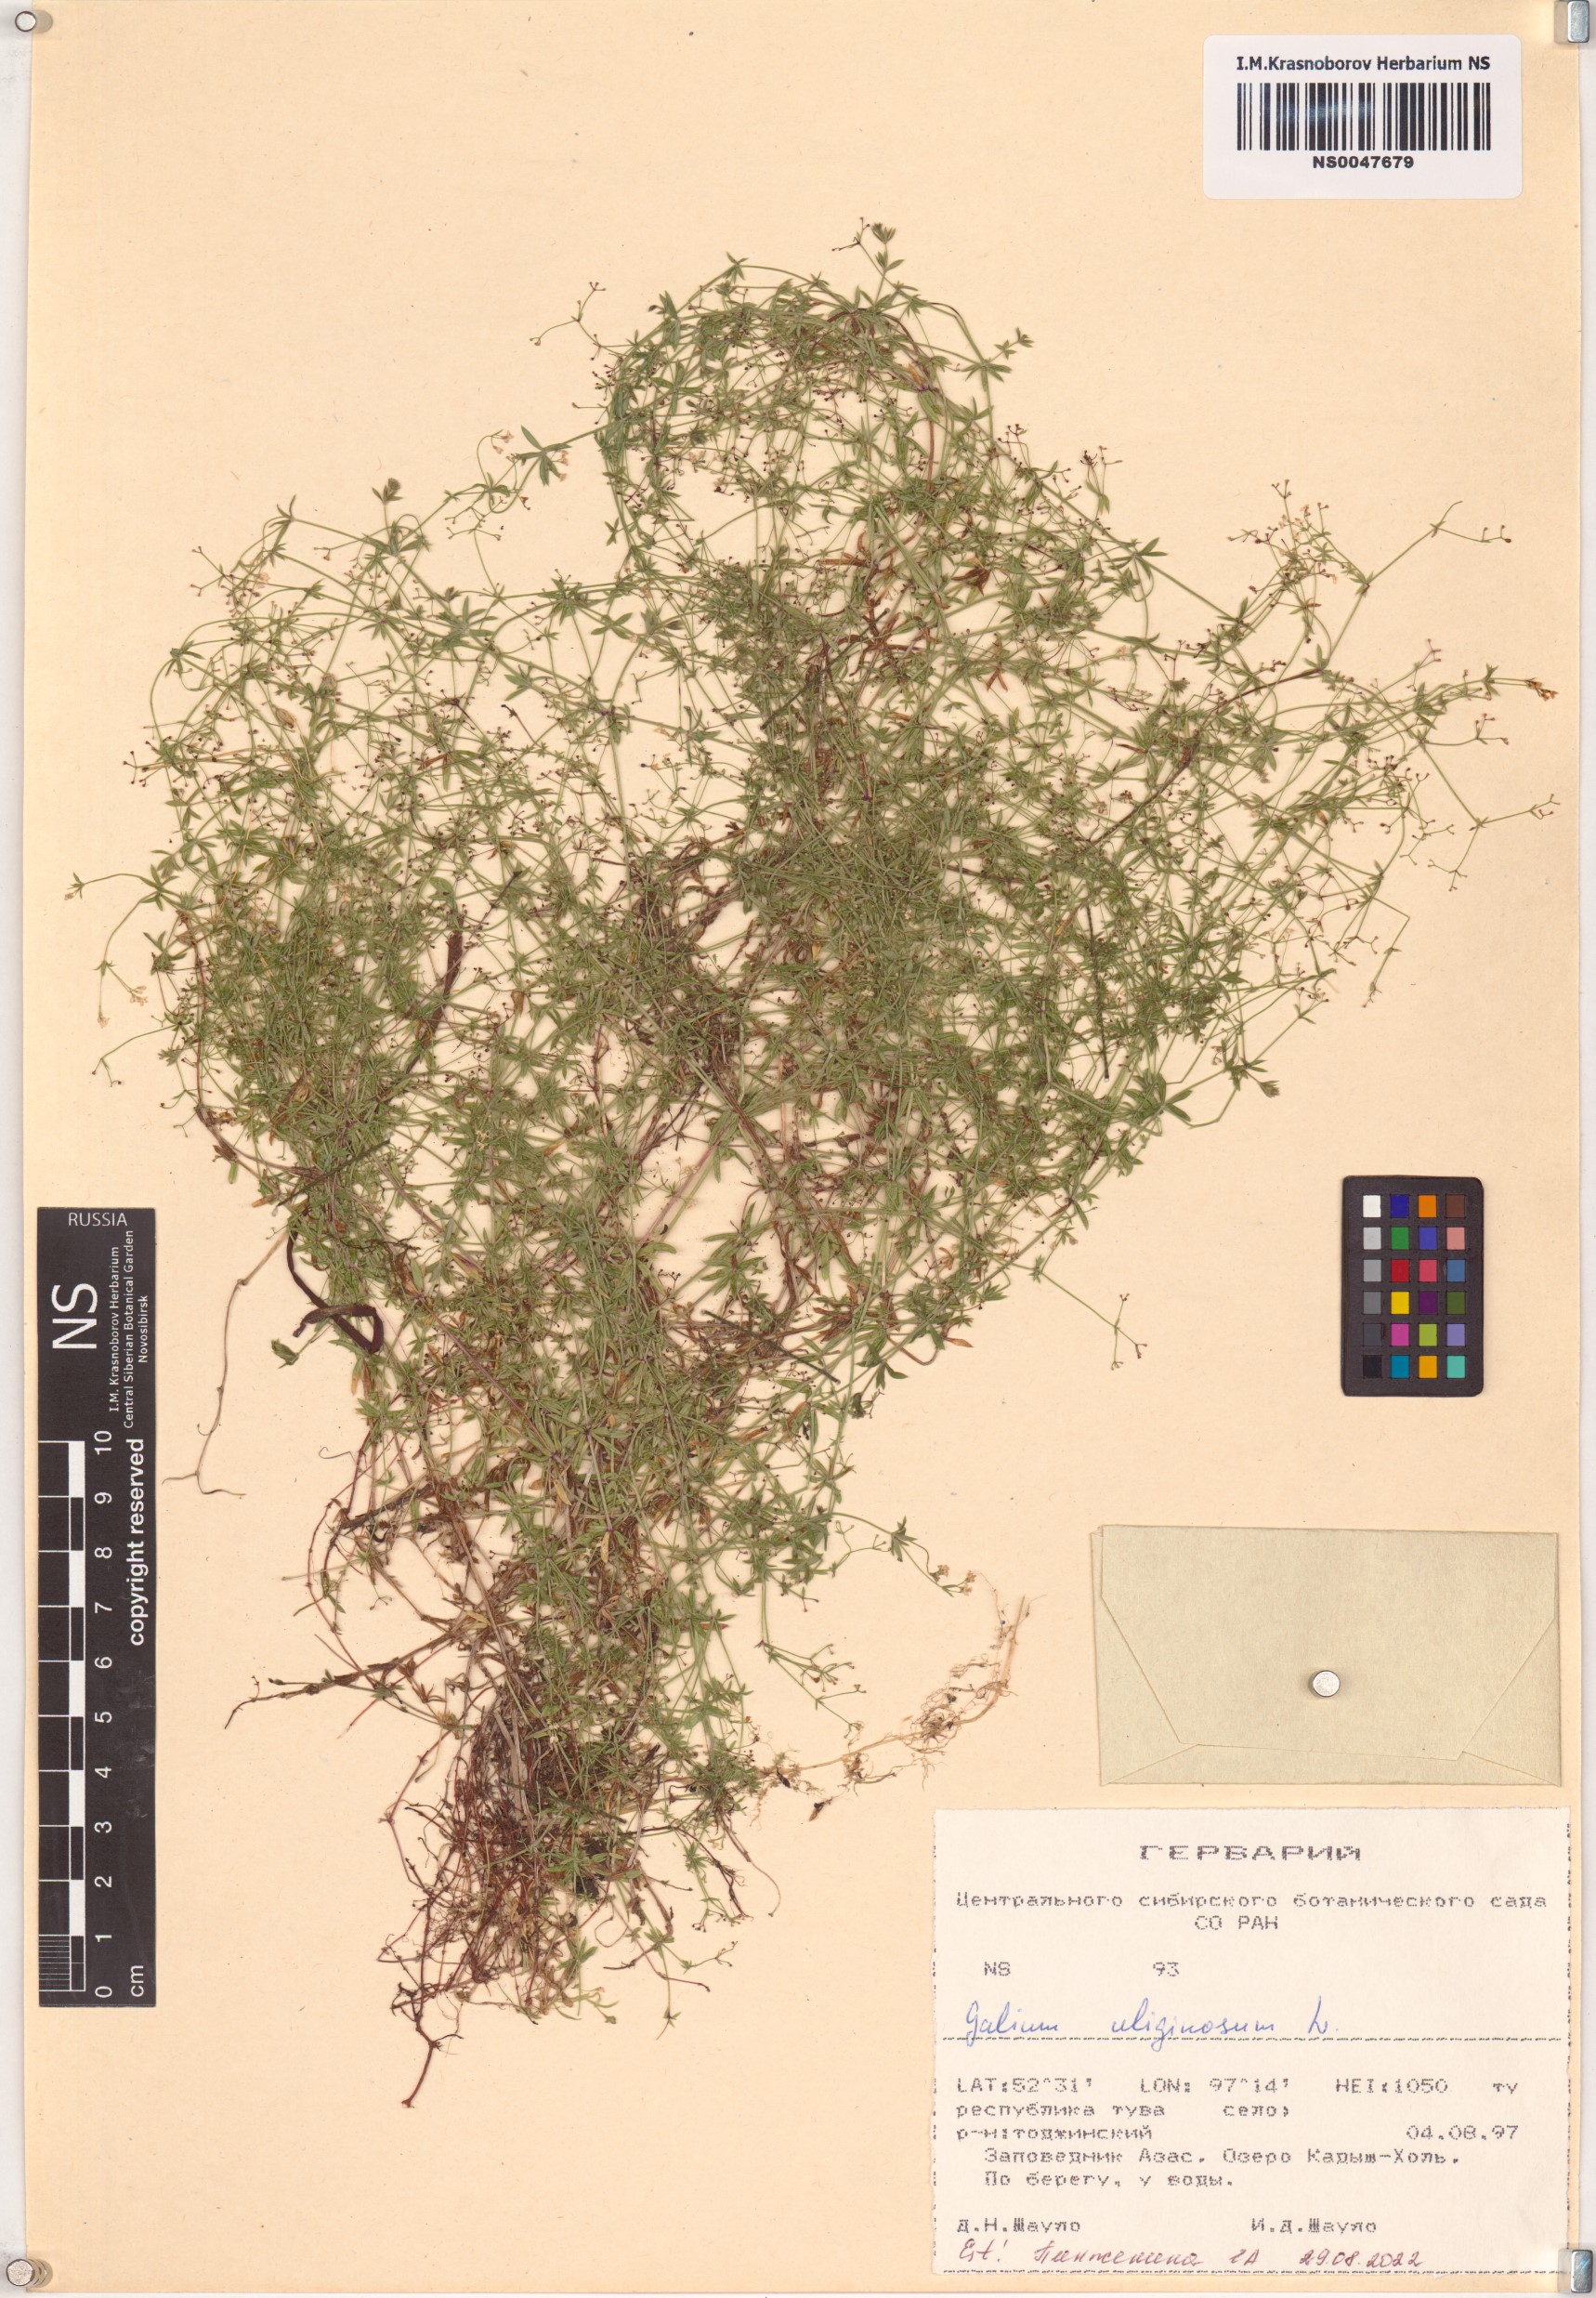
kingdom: Plantae
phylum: Tracheophyta
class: Magnoliopsida
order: Gentianales
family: Rubiaceae
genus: Galium
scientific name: Galium uliginosum
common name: Fen bedstraw
